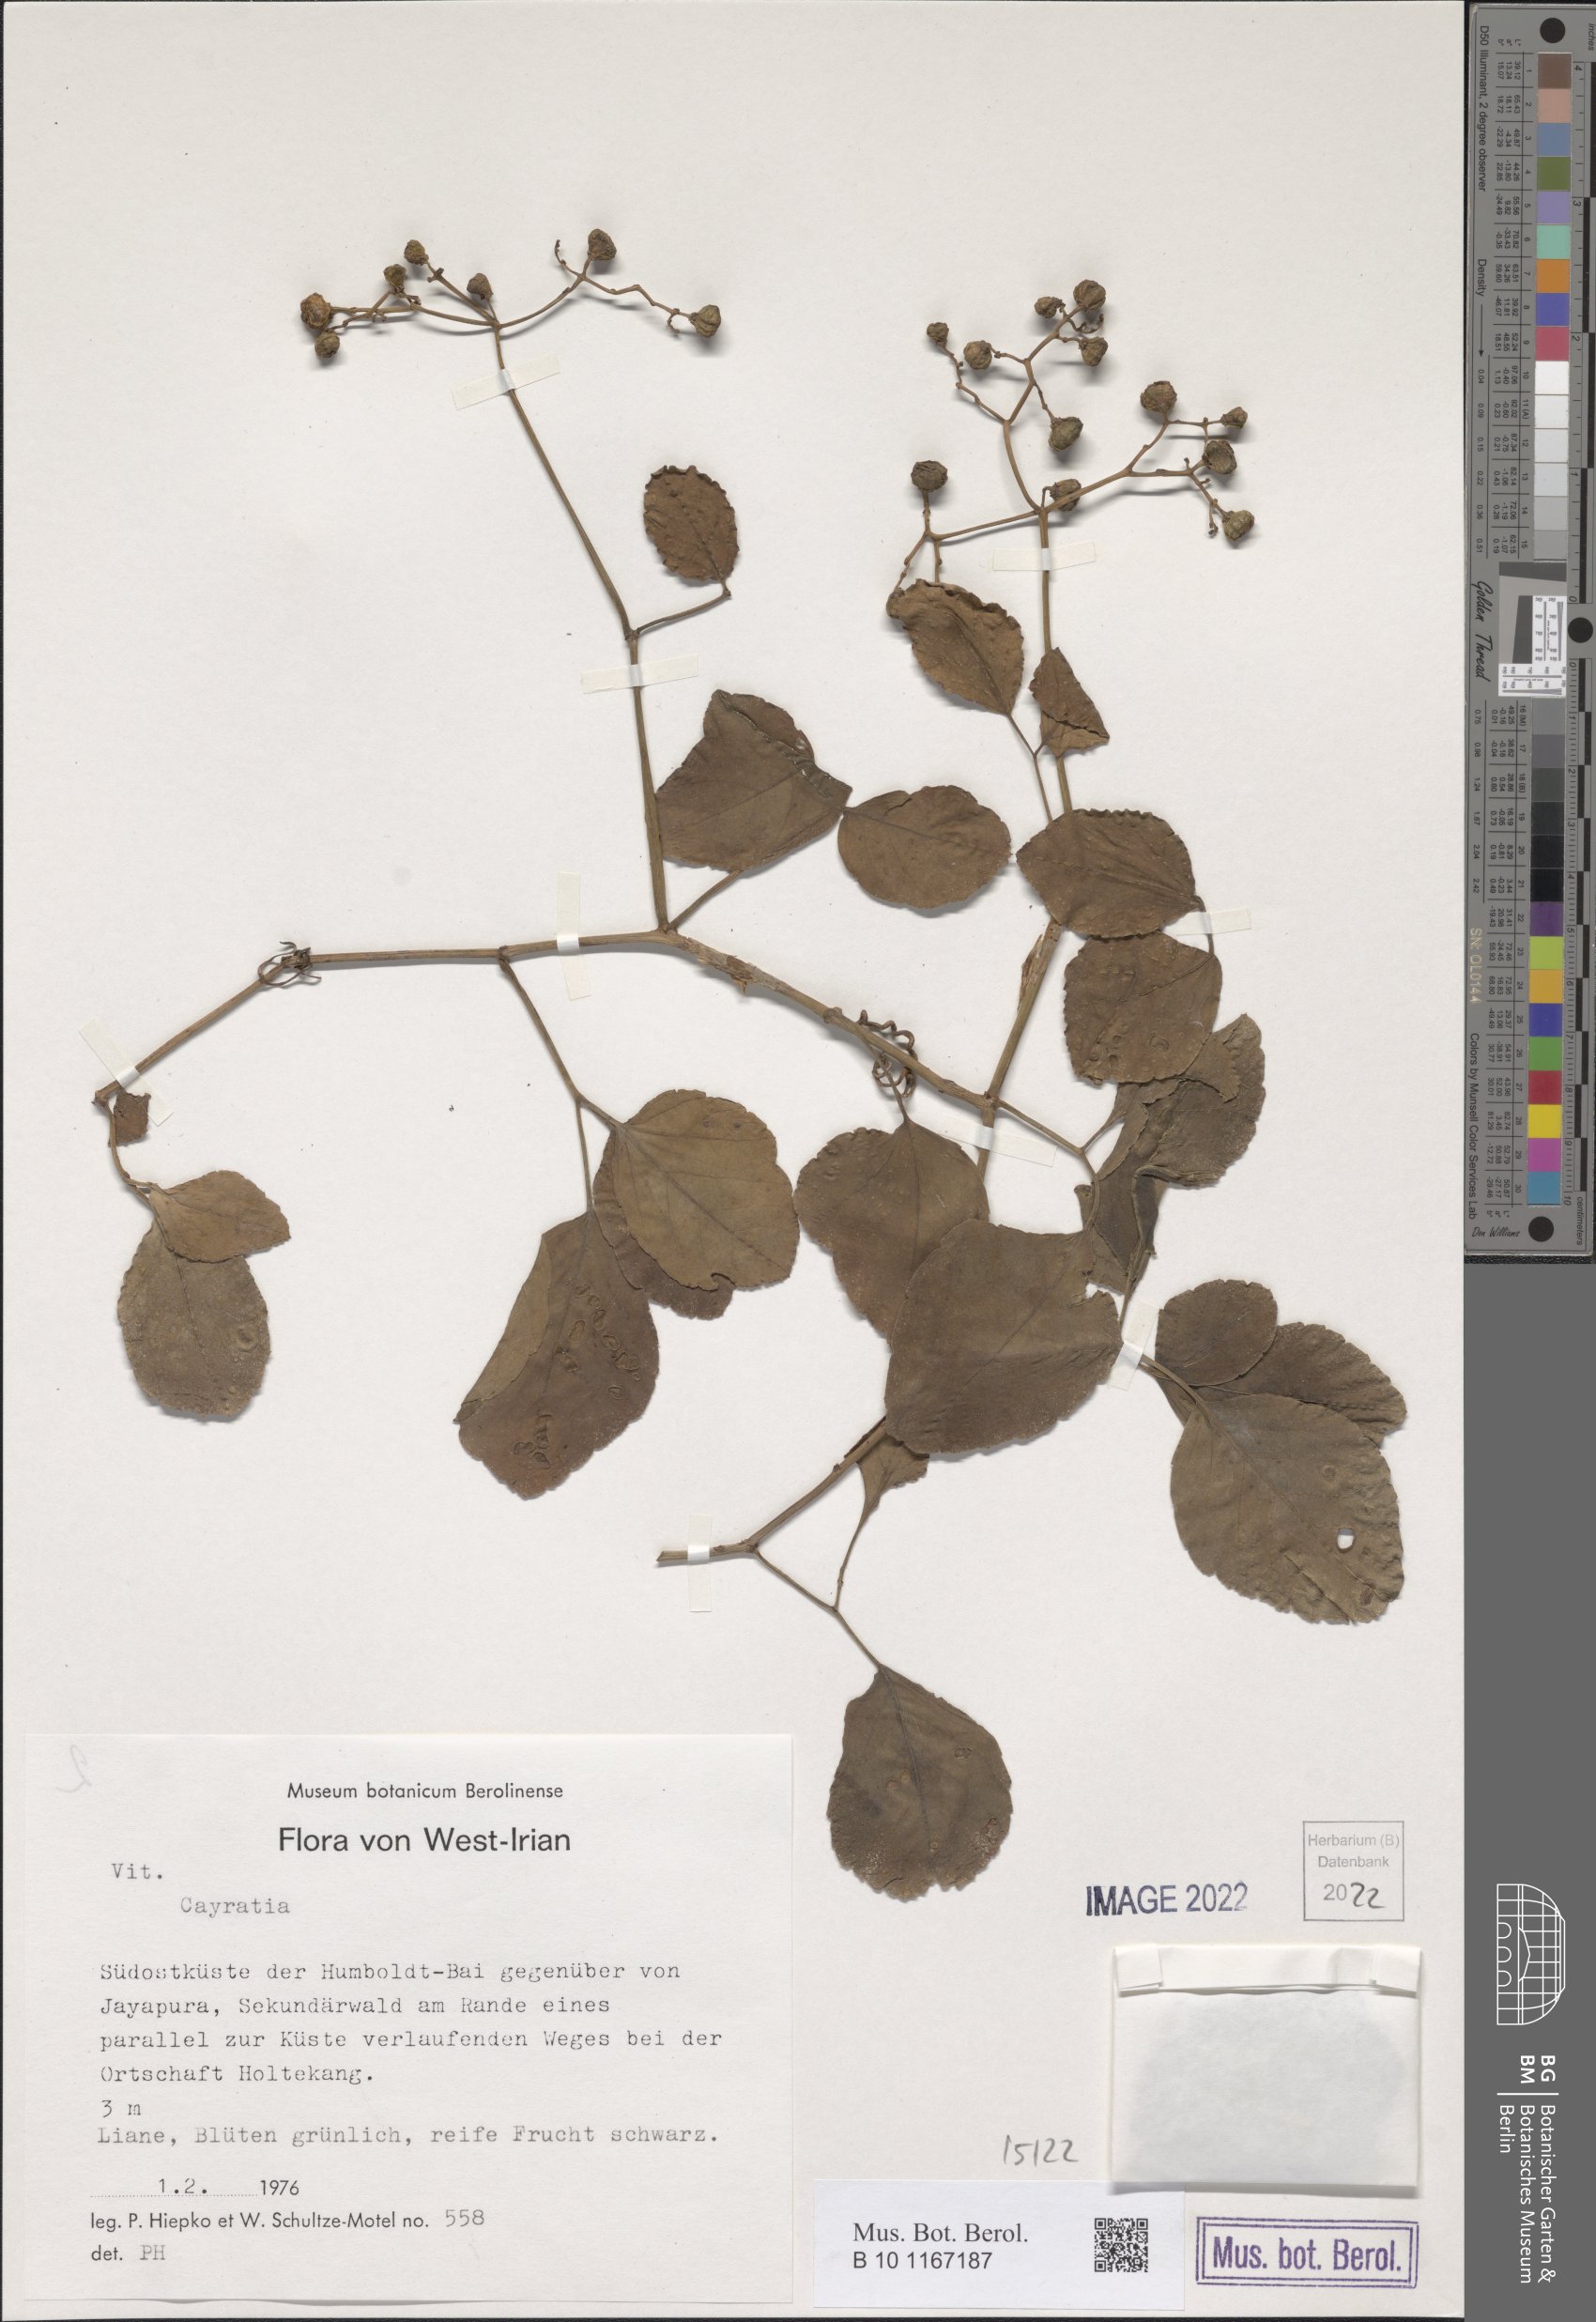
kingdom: Plantae
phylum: Tracheophyta
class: Magnoliopsida
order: Vitales
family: Vitaceae
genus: Cayratia
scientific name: Cayratia
